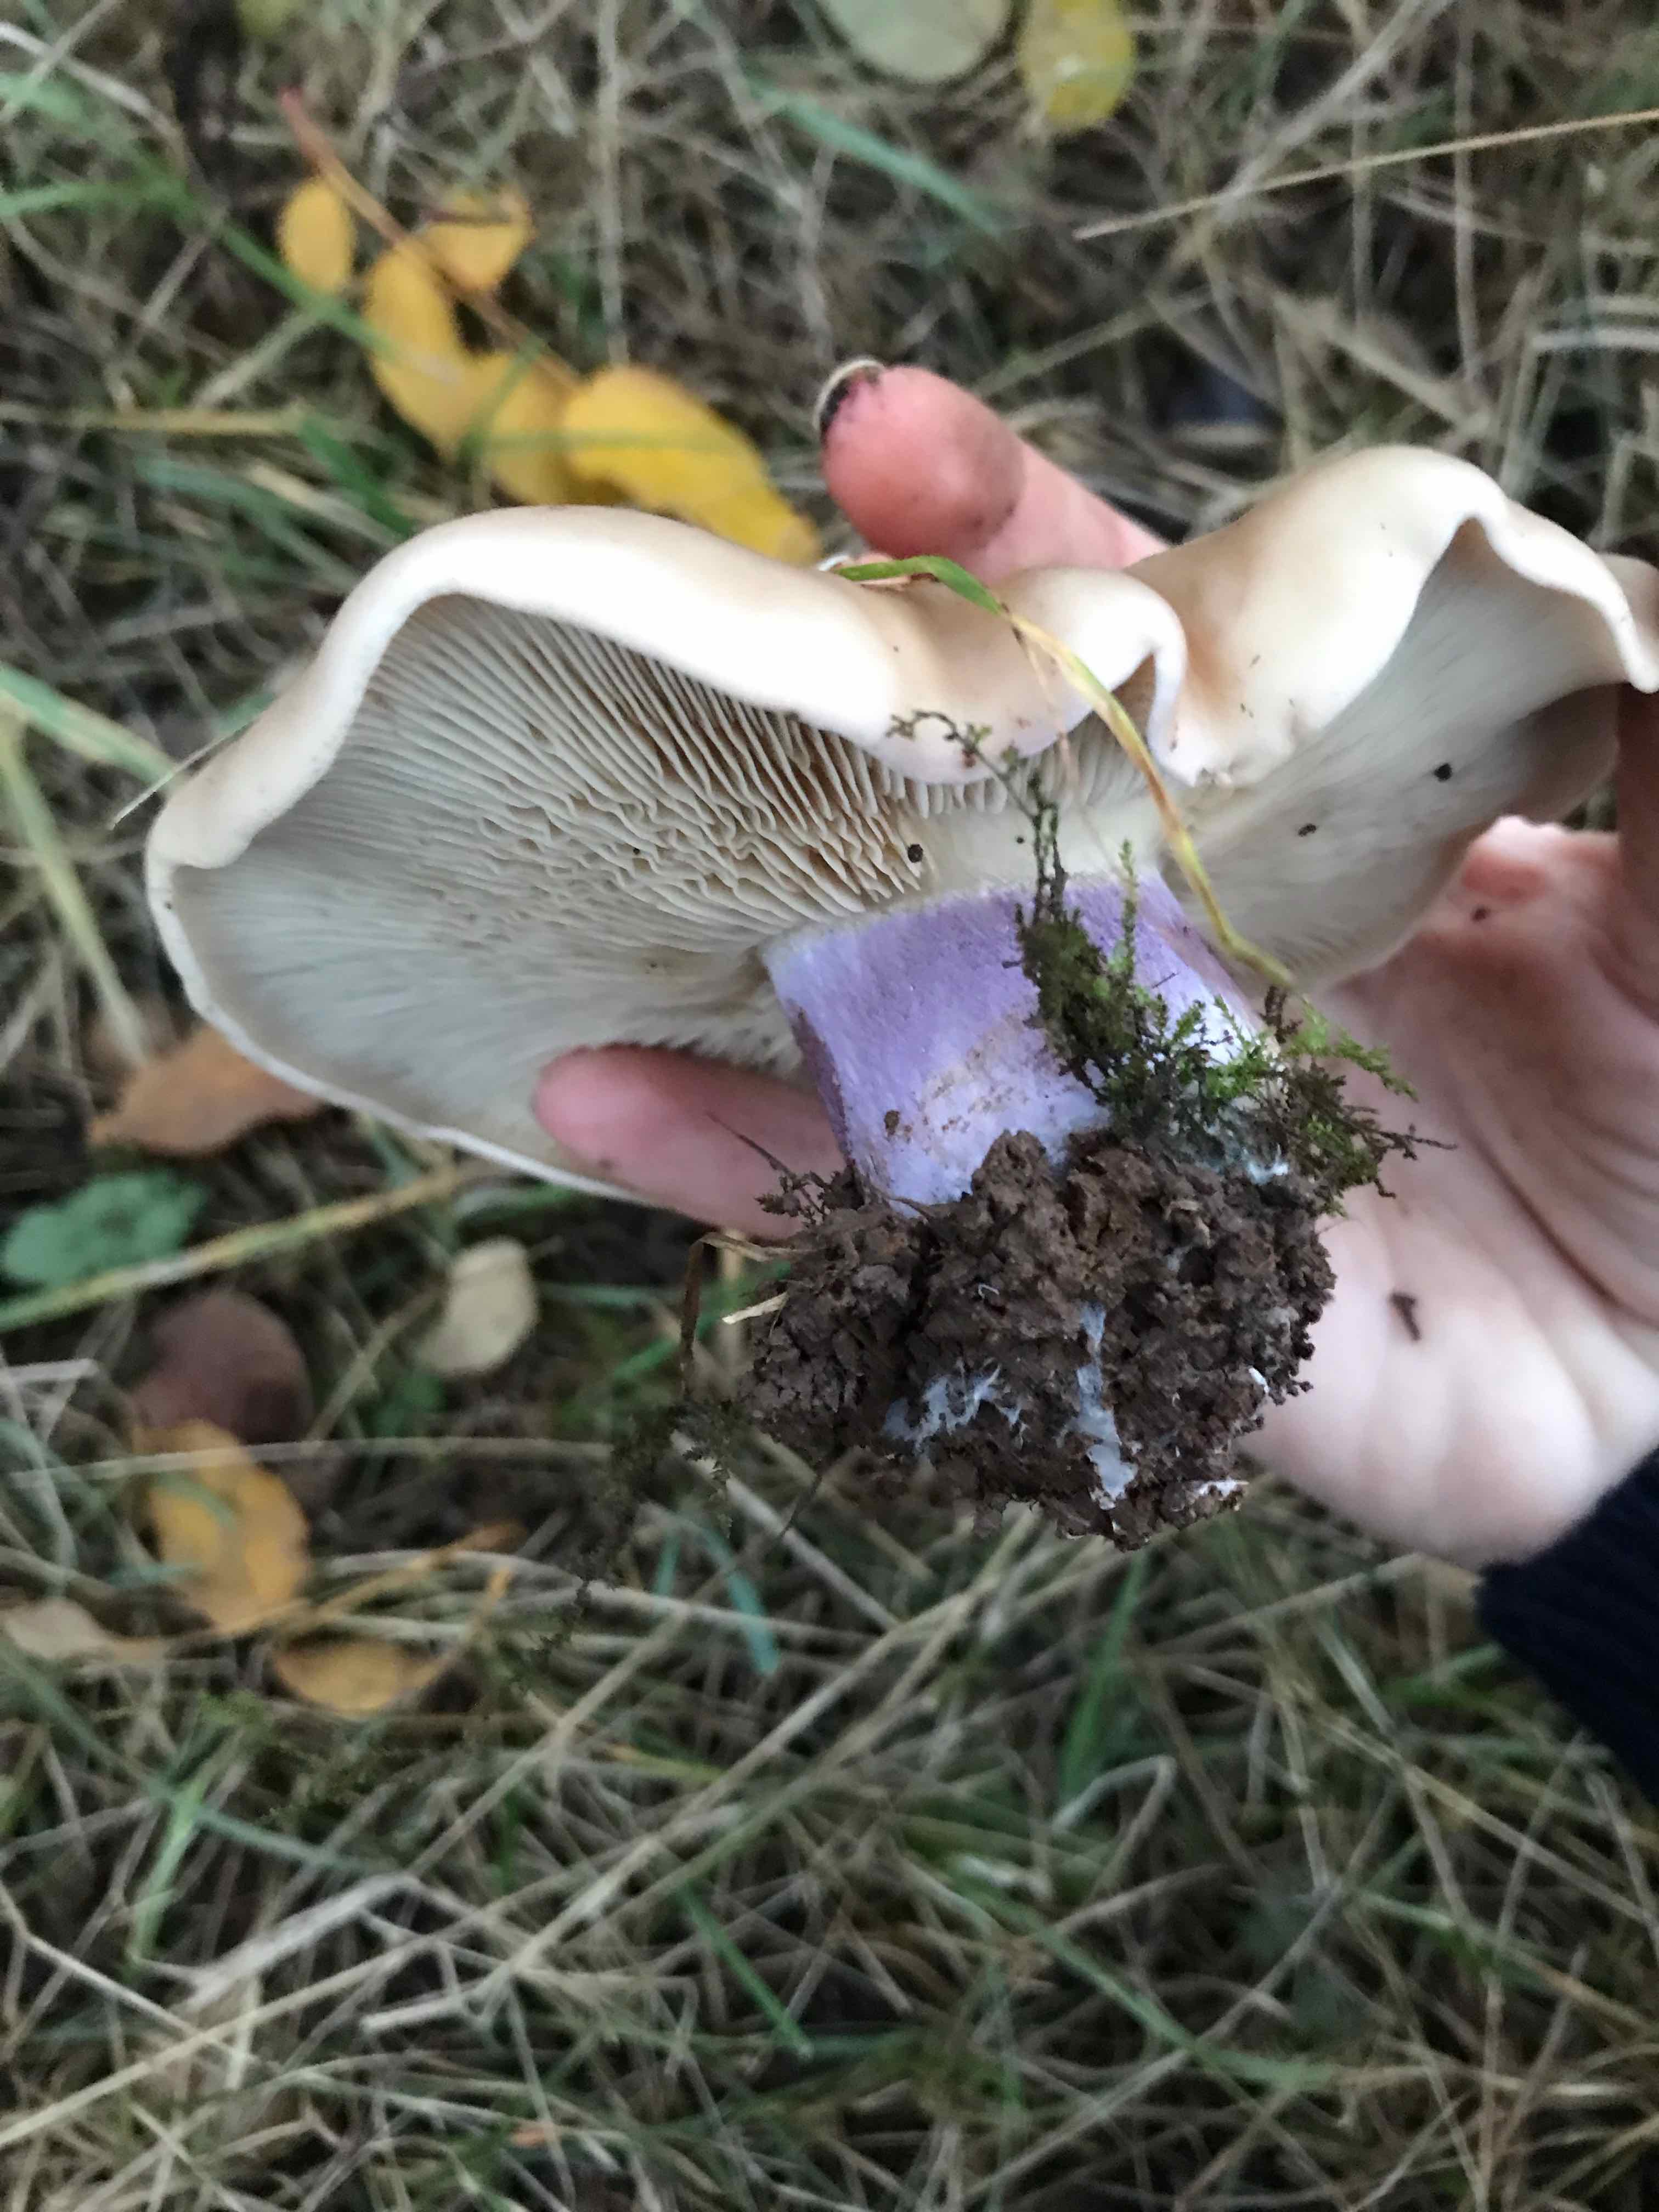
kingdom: Fungi
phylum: Basidiomycota
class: Agaricomycetes
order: Agaricales
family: Tricholomataceae
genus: Lepista
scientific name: Lepista personata
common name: bleg hekseringshat
